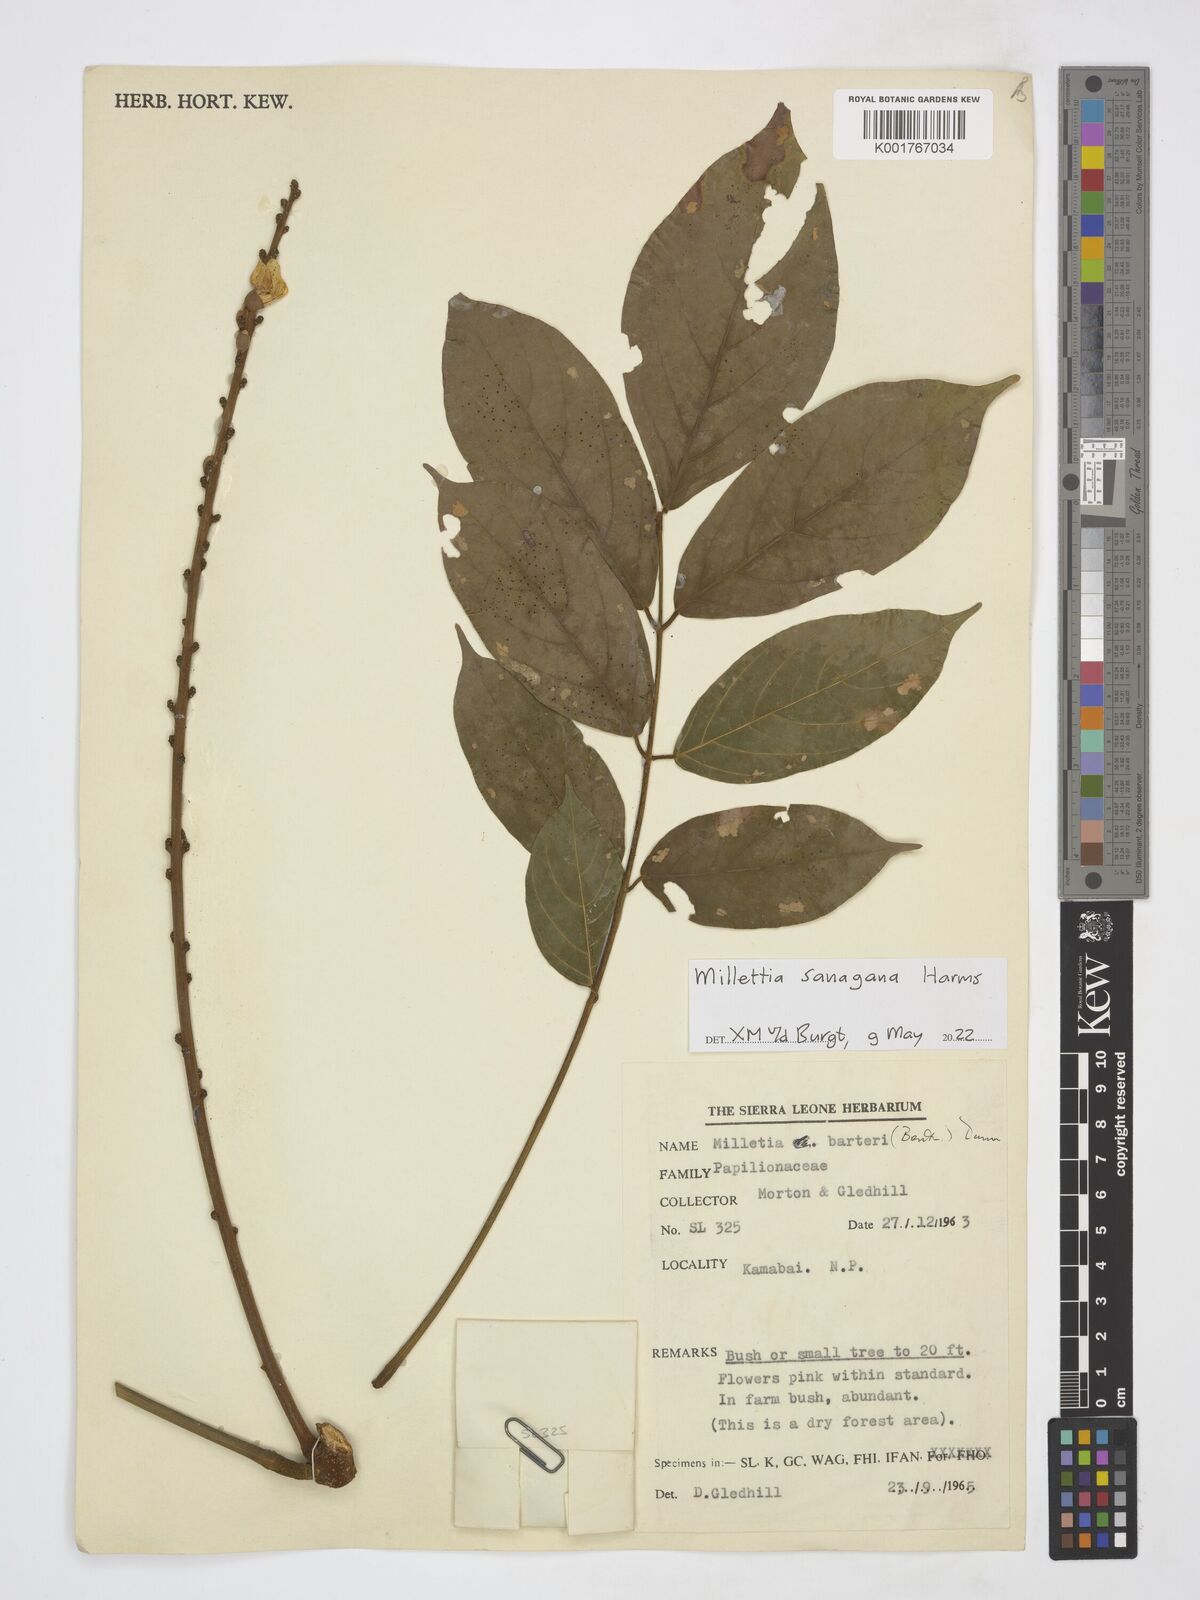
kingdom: Plantae
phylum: Tracheophyta
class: Magnoliopsida
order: Fabales
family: Fabaceae
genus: Millettia
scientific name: Millettia sanagana
